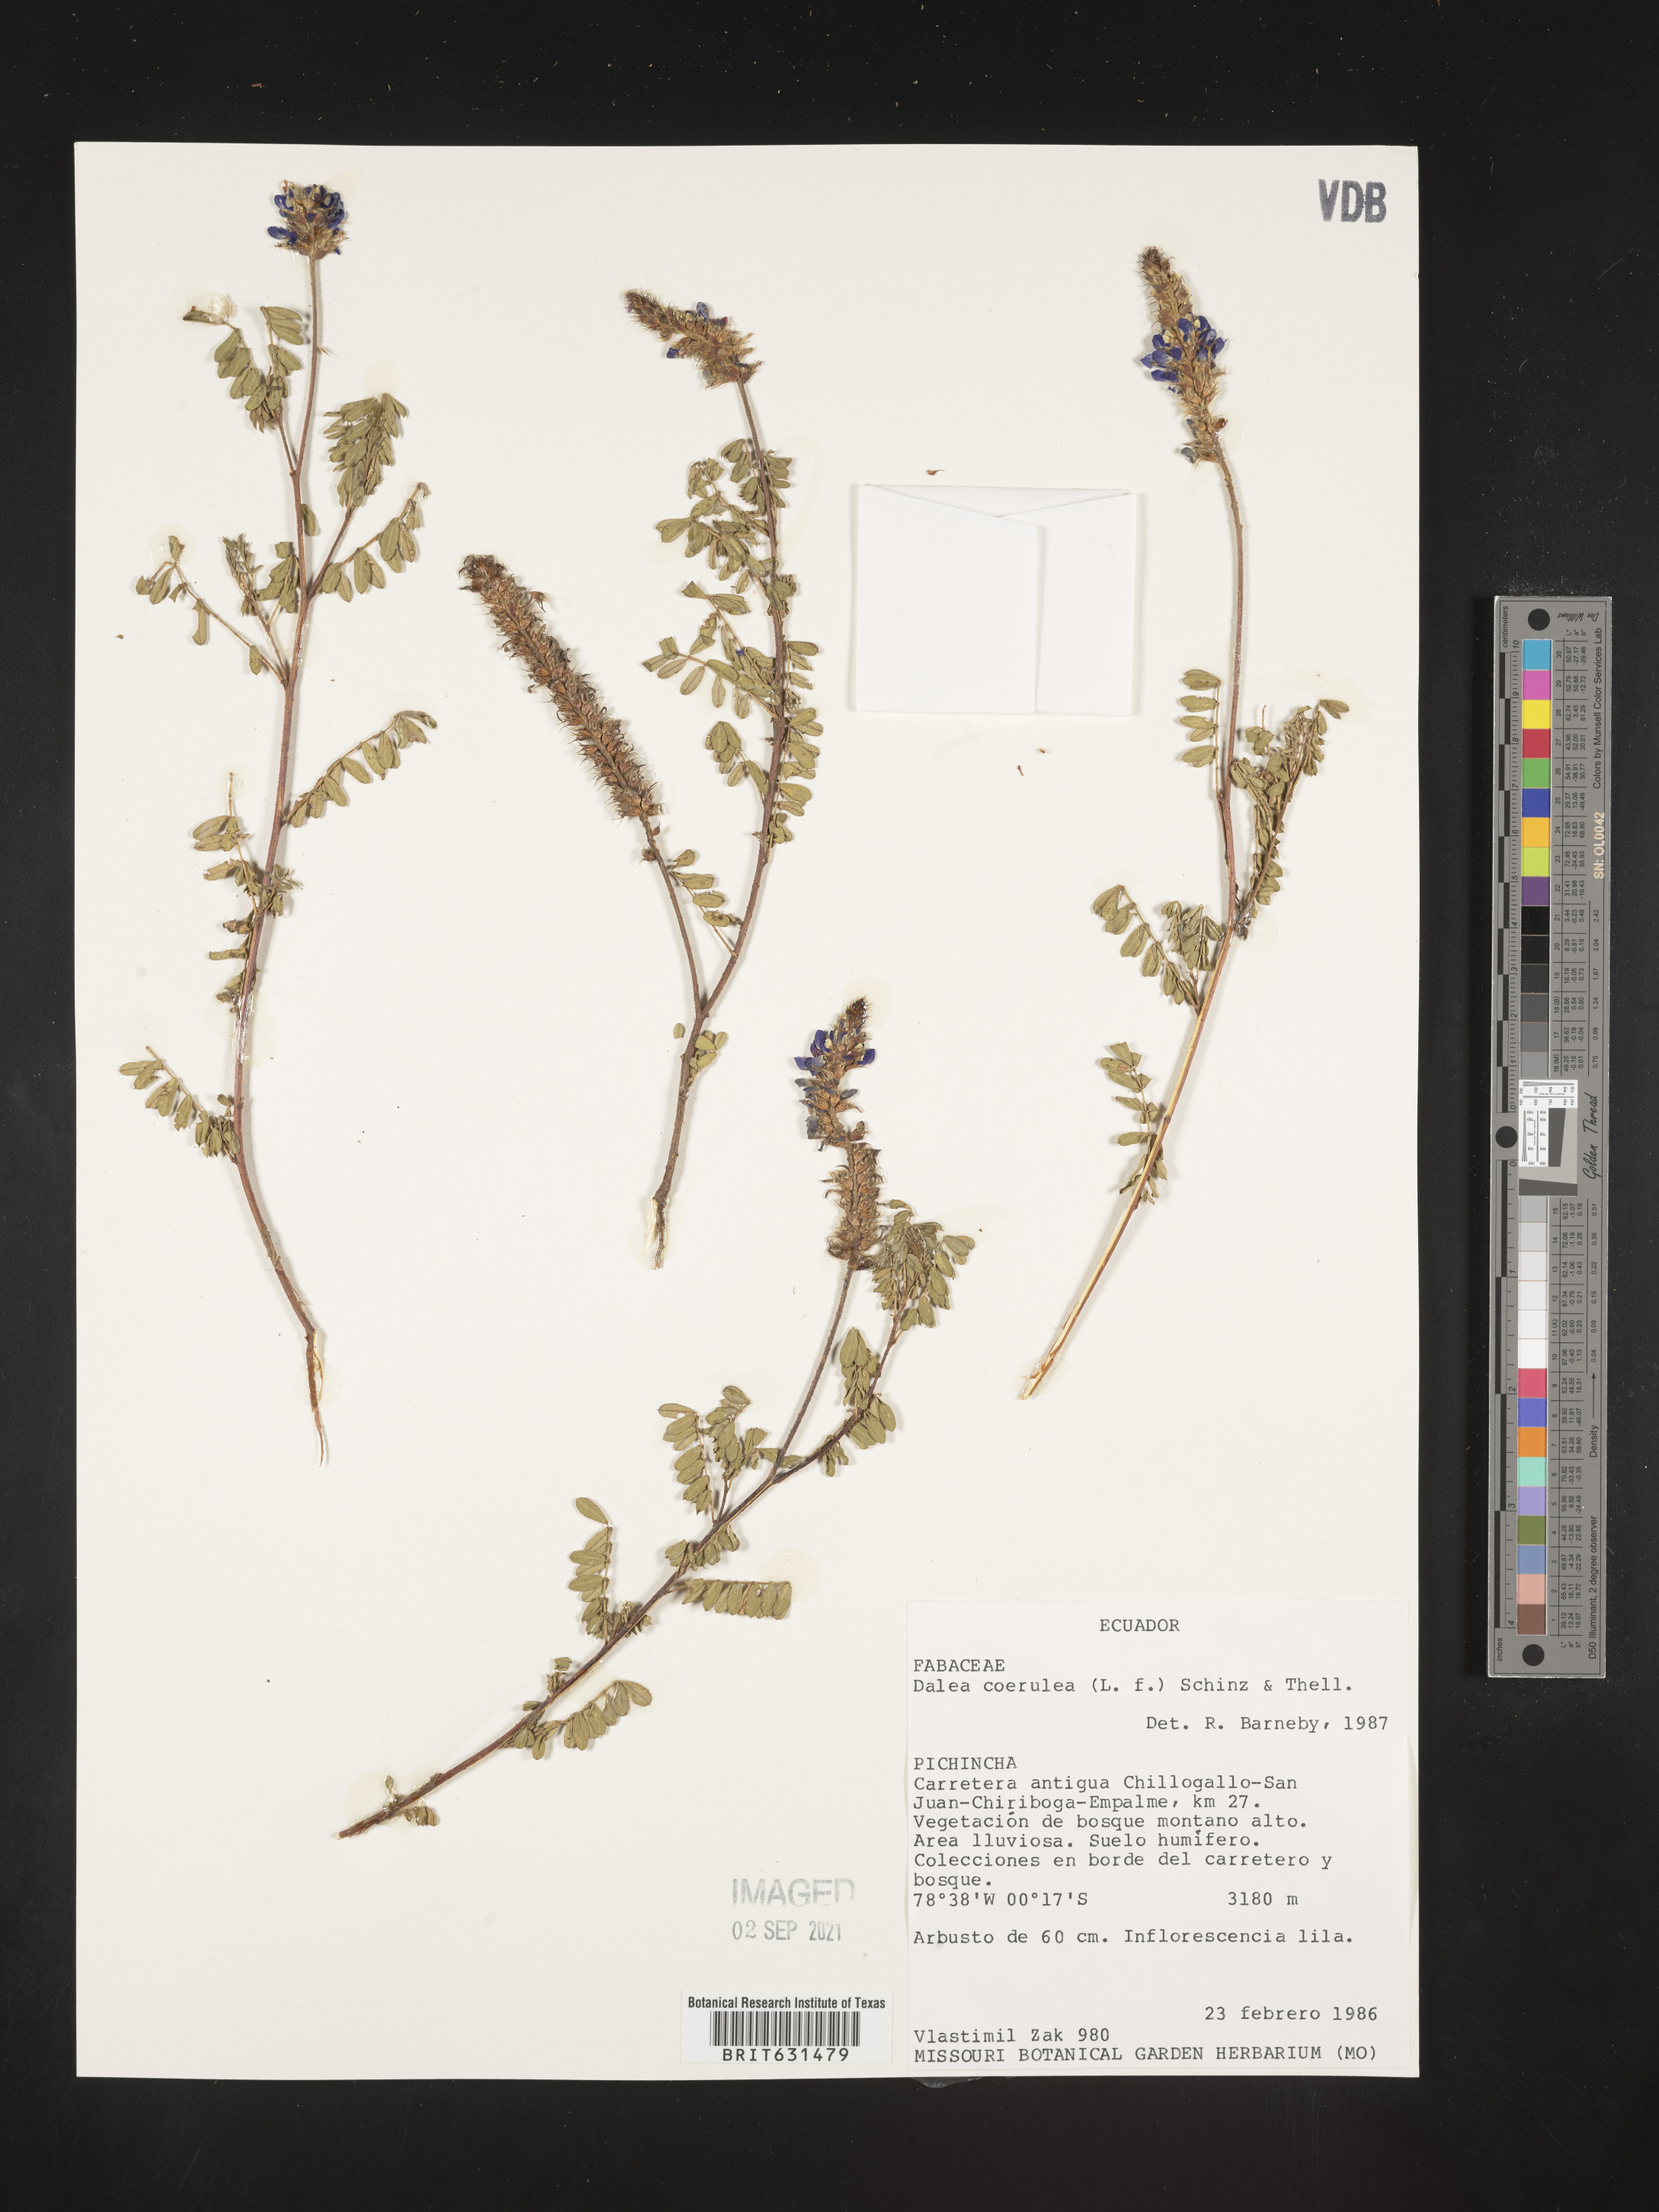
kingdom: Plantae
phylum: Tracheophyta
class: Magnoliopsida
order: Fabales
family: Fabaceae
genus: Dalea
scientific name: Dalea coerulea
